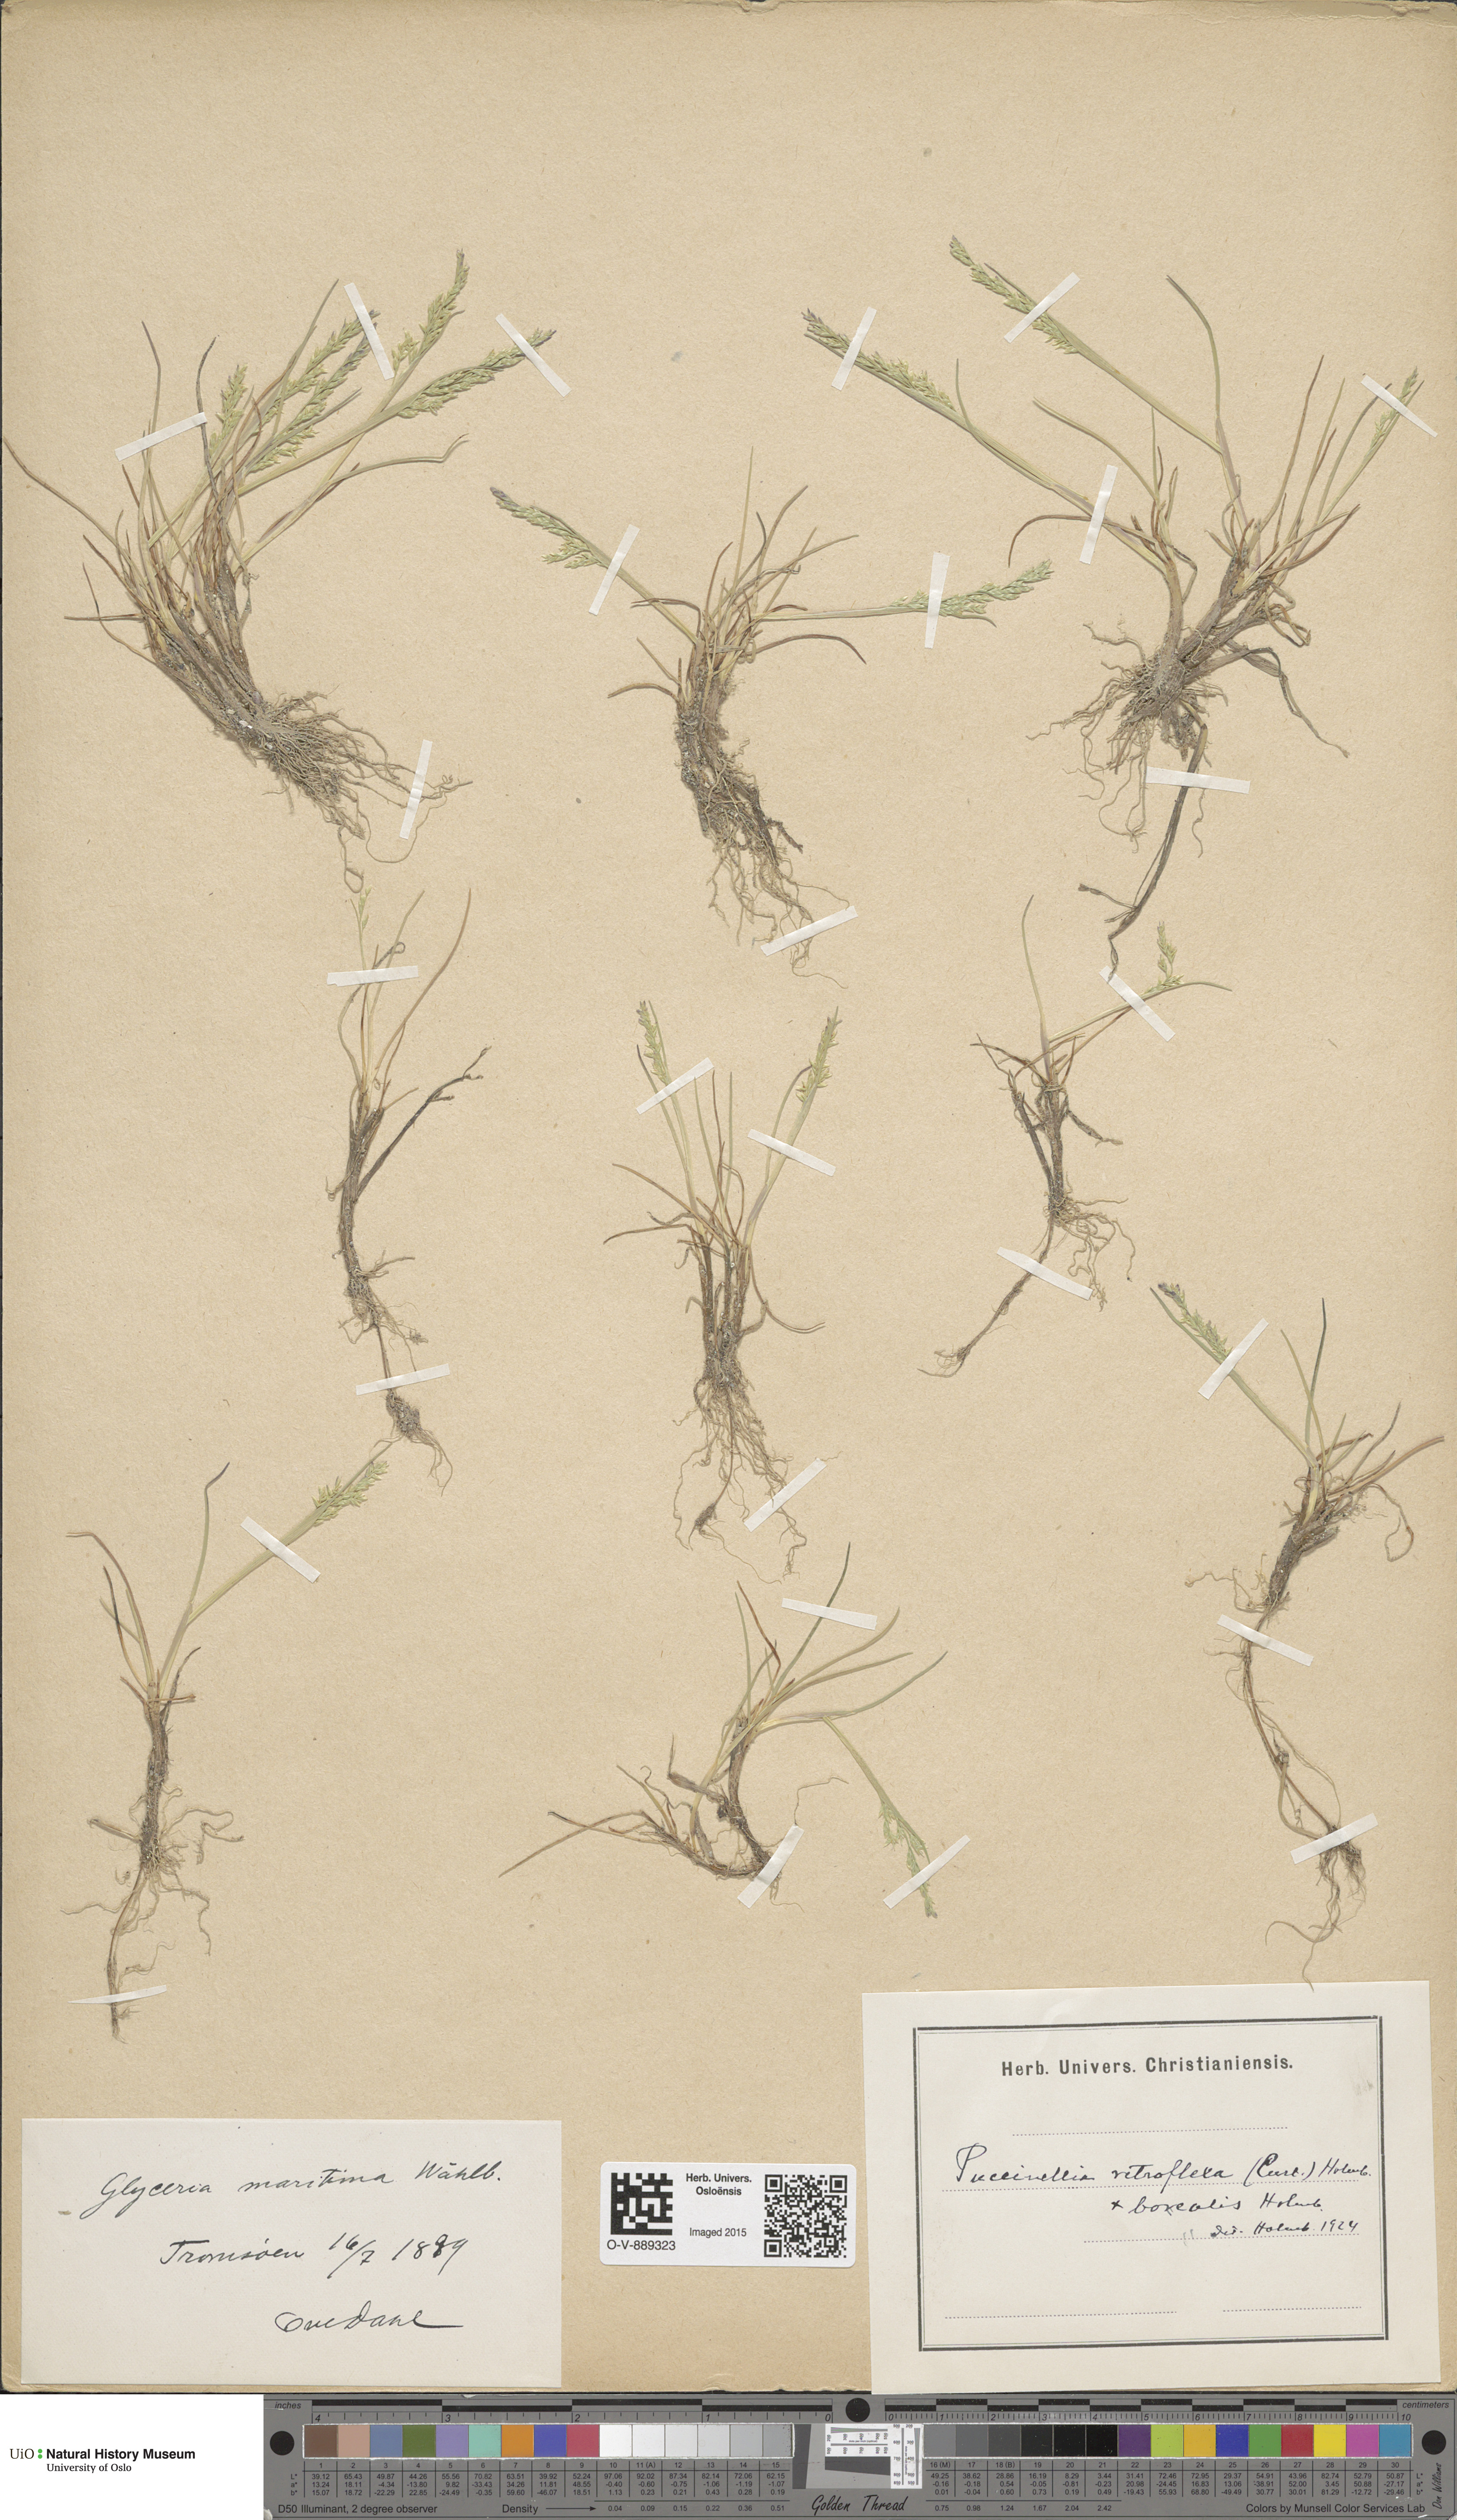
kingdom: Plantae
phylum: Tracheophyta
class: Liliopsida
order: Poales
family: Poaceae
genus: Puccinellia
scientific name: Puccinellia distans
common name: Weeping alkaligrass
